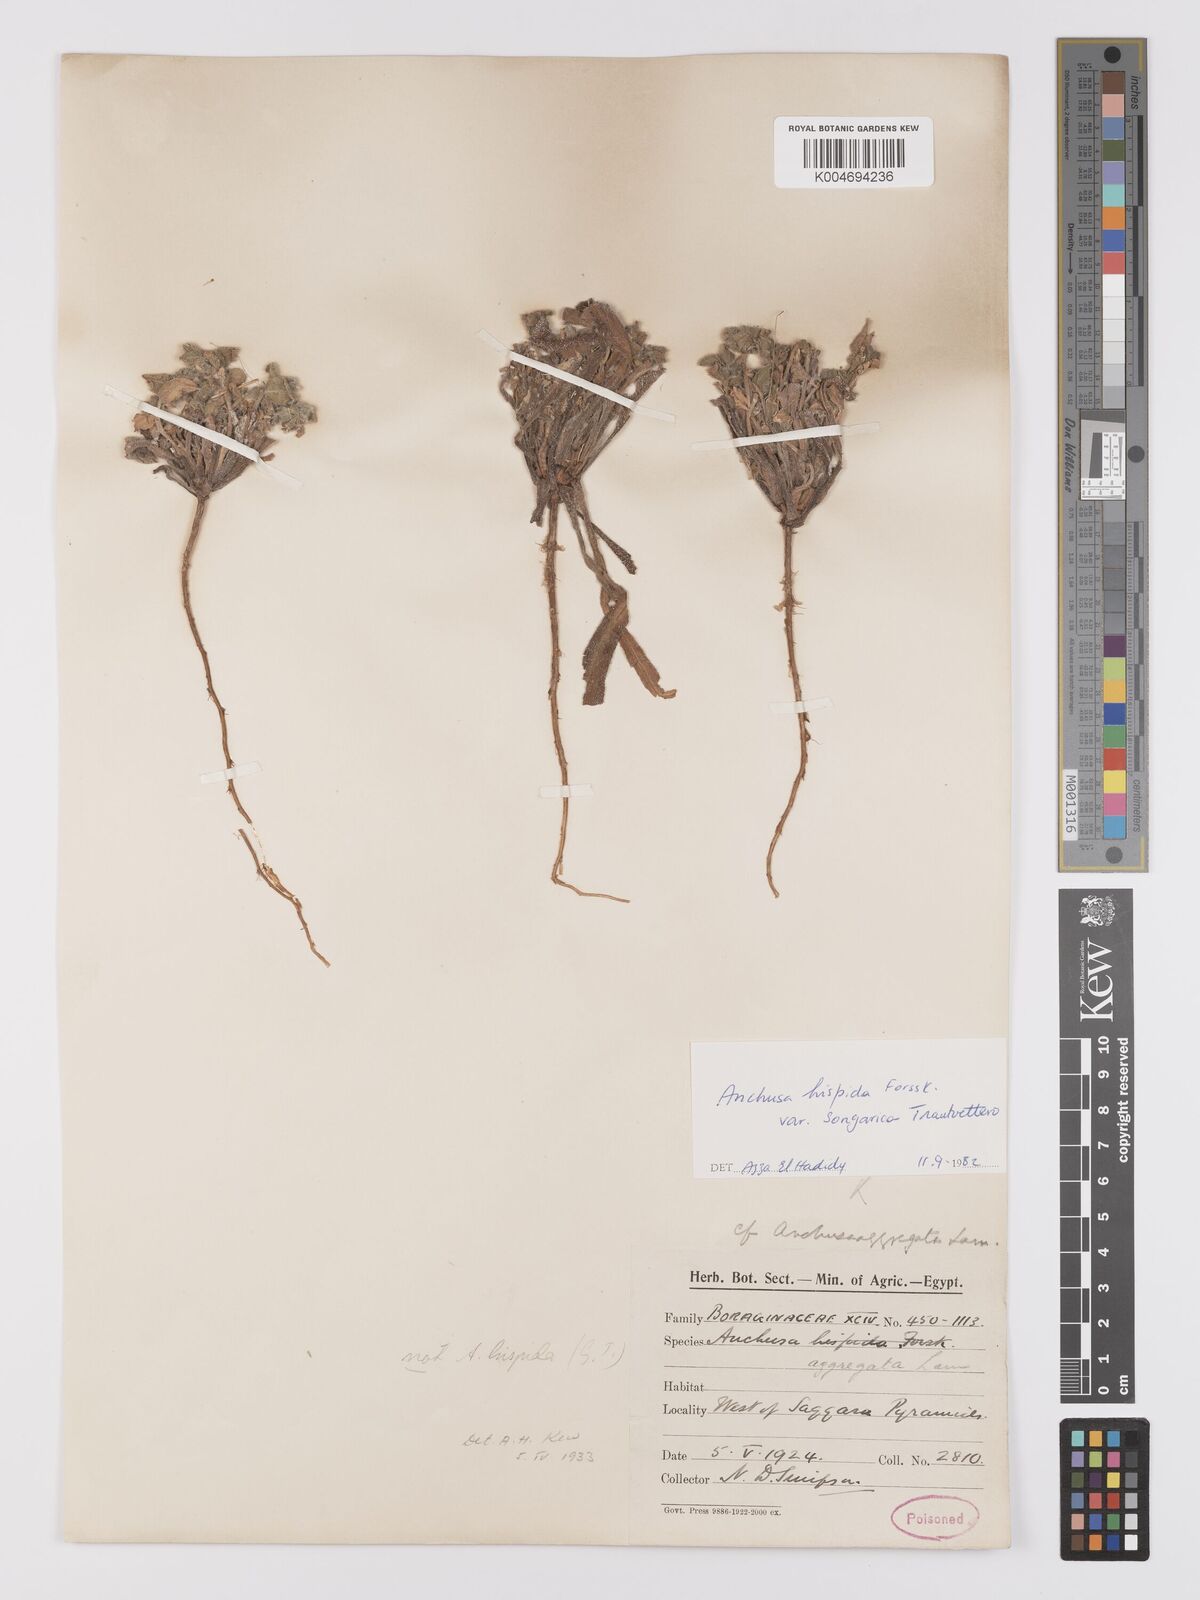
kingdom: Plantae
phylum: Tracheophyta
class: Magnoliopsida
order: Boraginales
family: Boraginaceae
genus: Gastrocotyle
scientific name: Gastrocotyle hispida
